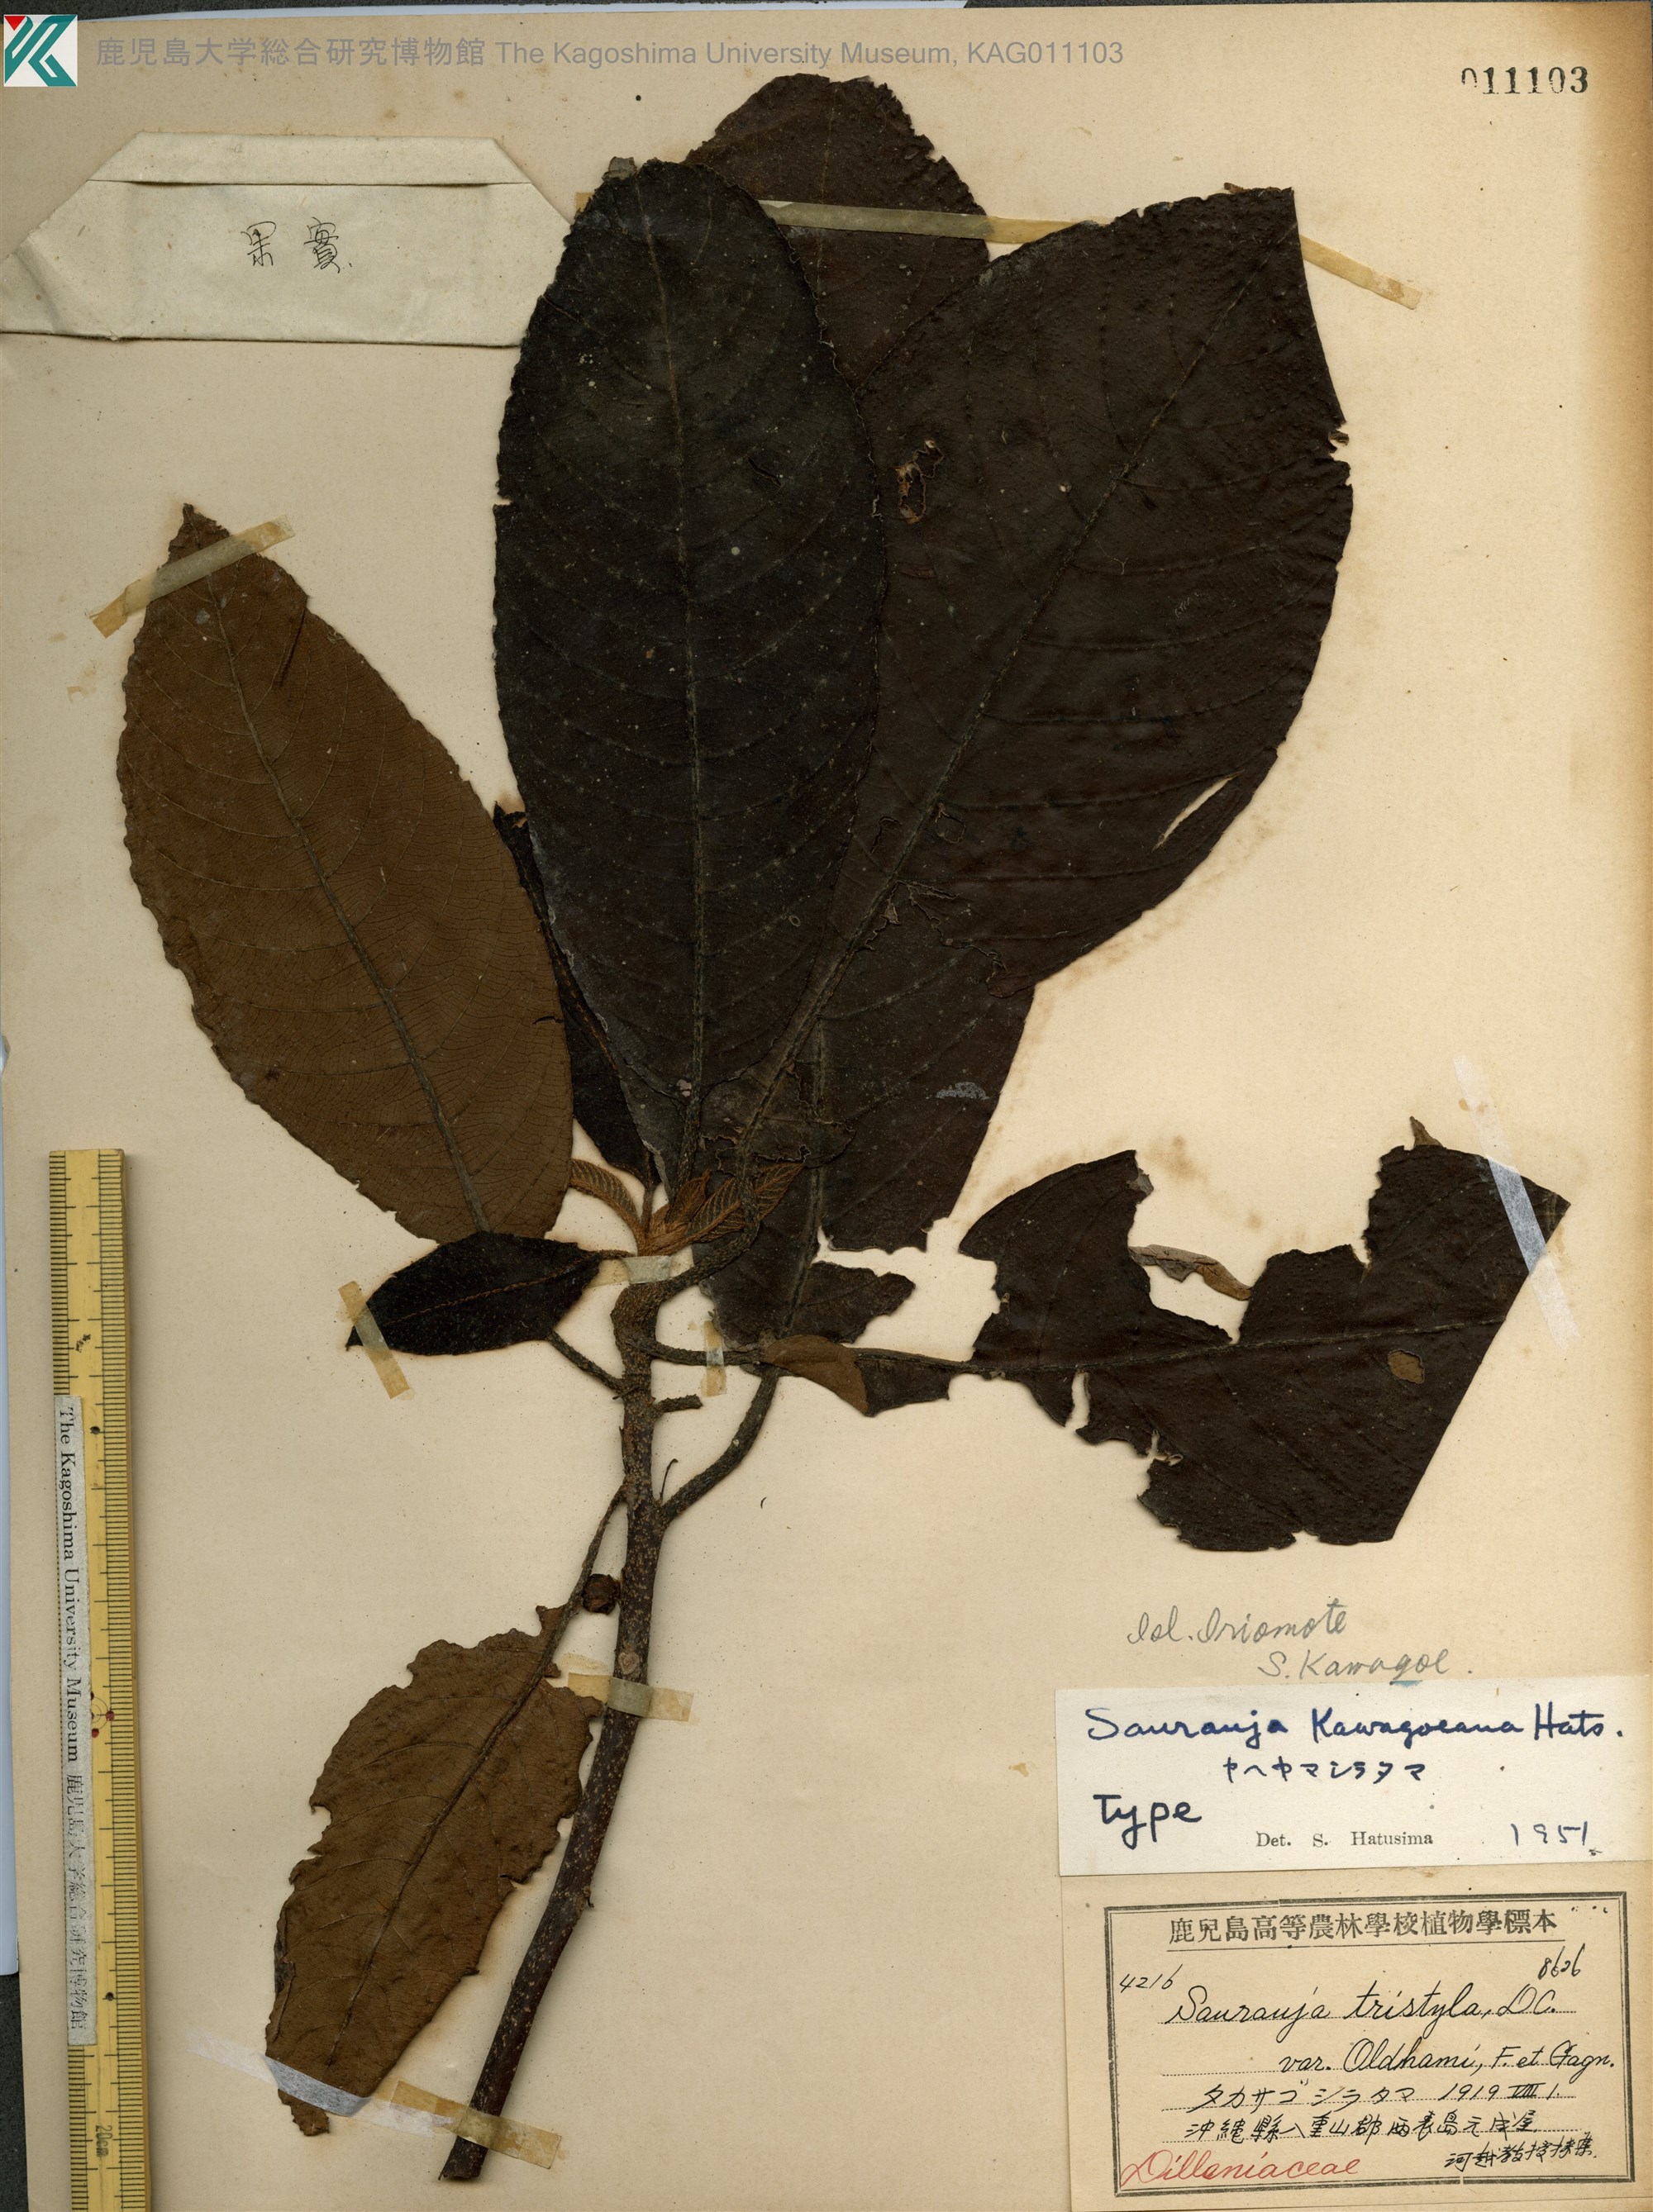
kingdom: Plantae
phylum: Tracheophyta
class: Magnoliopsida
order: Ericales
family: Actinidiaceae
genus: Saurauia
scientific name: Saurauia tristyla
